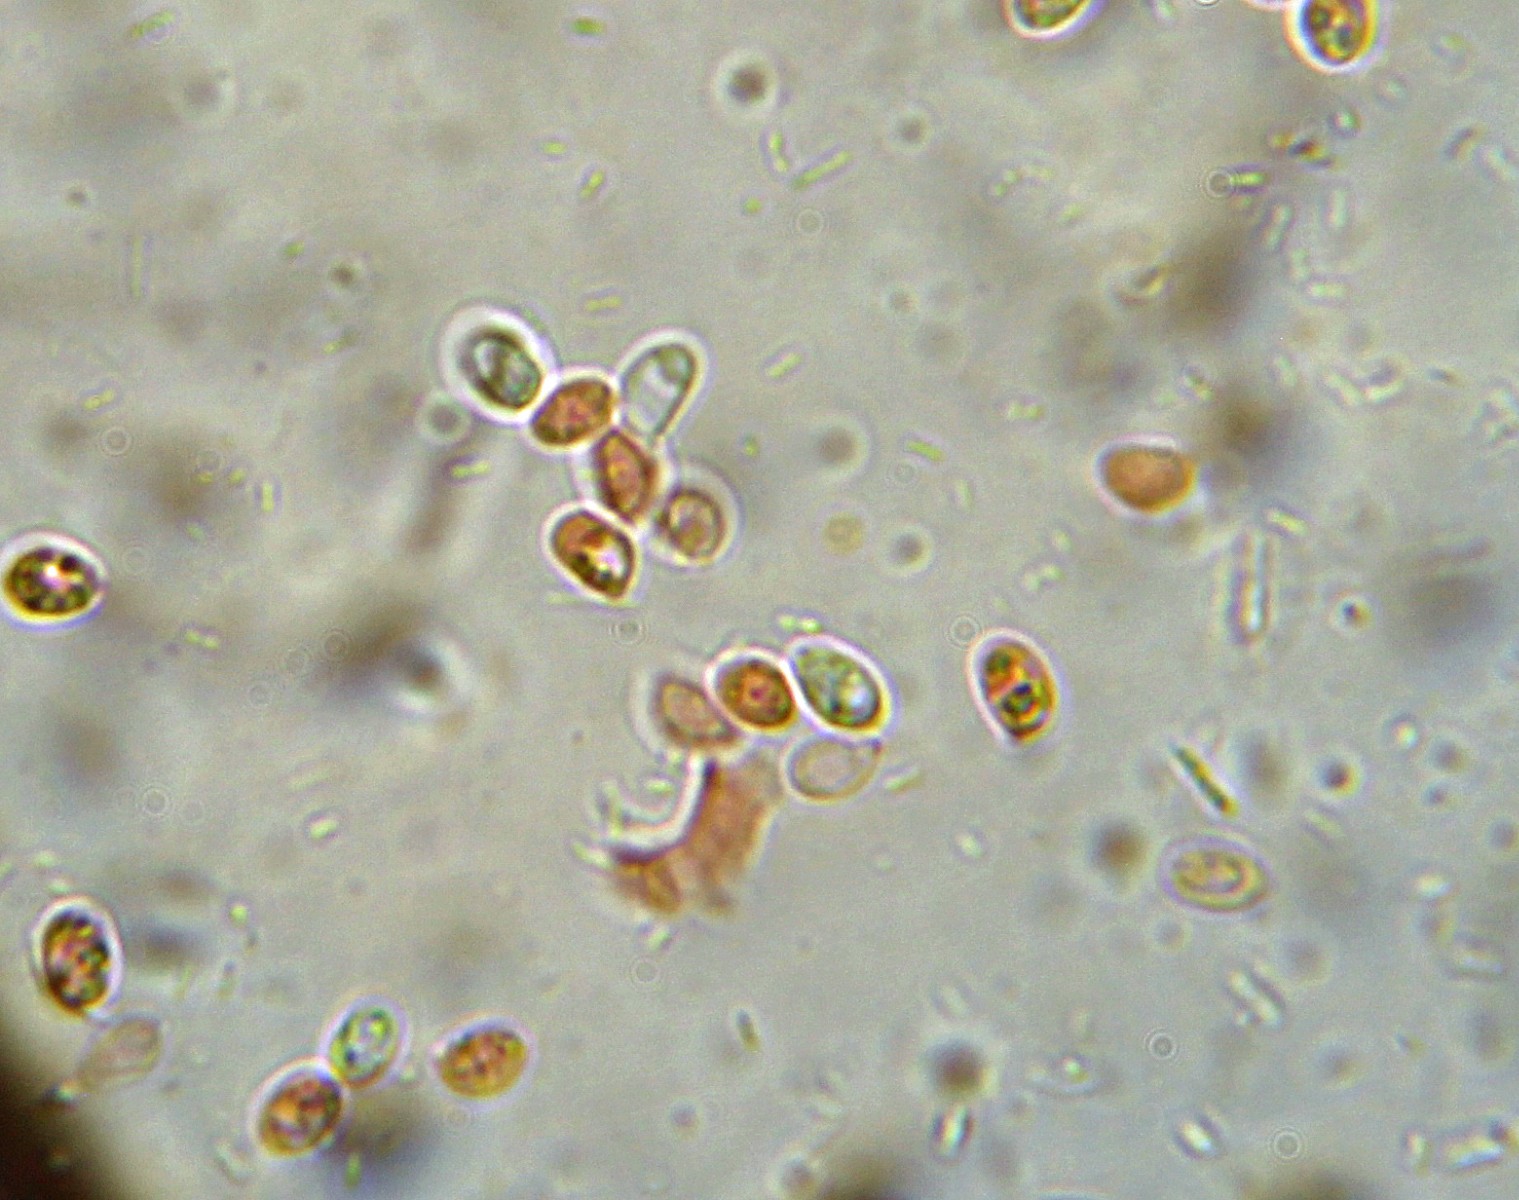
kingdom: Fungi
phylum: Basidiomycota
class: Agaricomycetes
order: Hymenochaetales
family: Hyphodontiaceae
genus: Hyphodontia
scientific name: Hyphodontia pallidula
